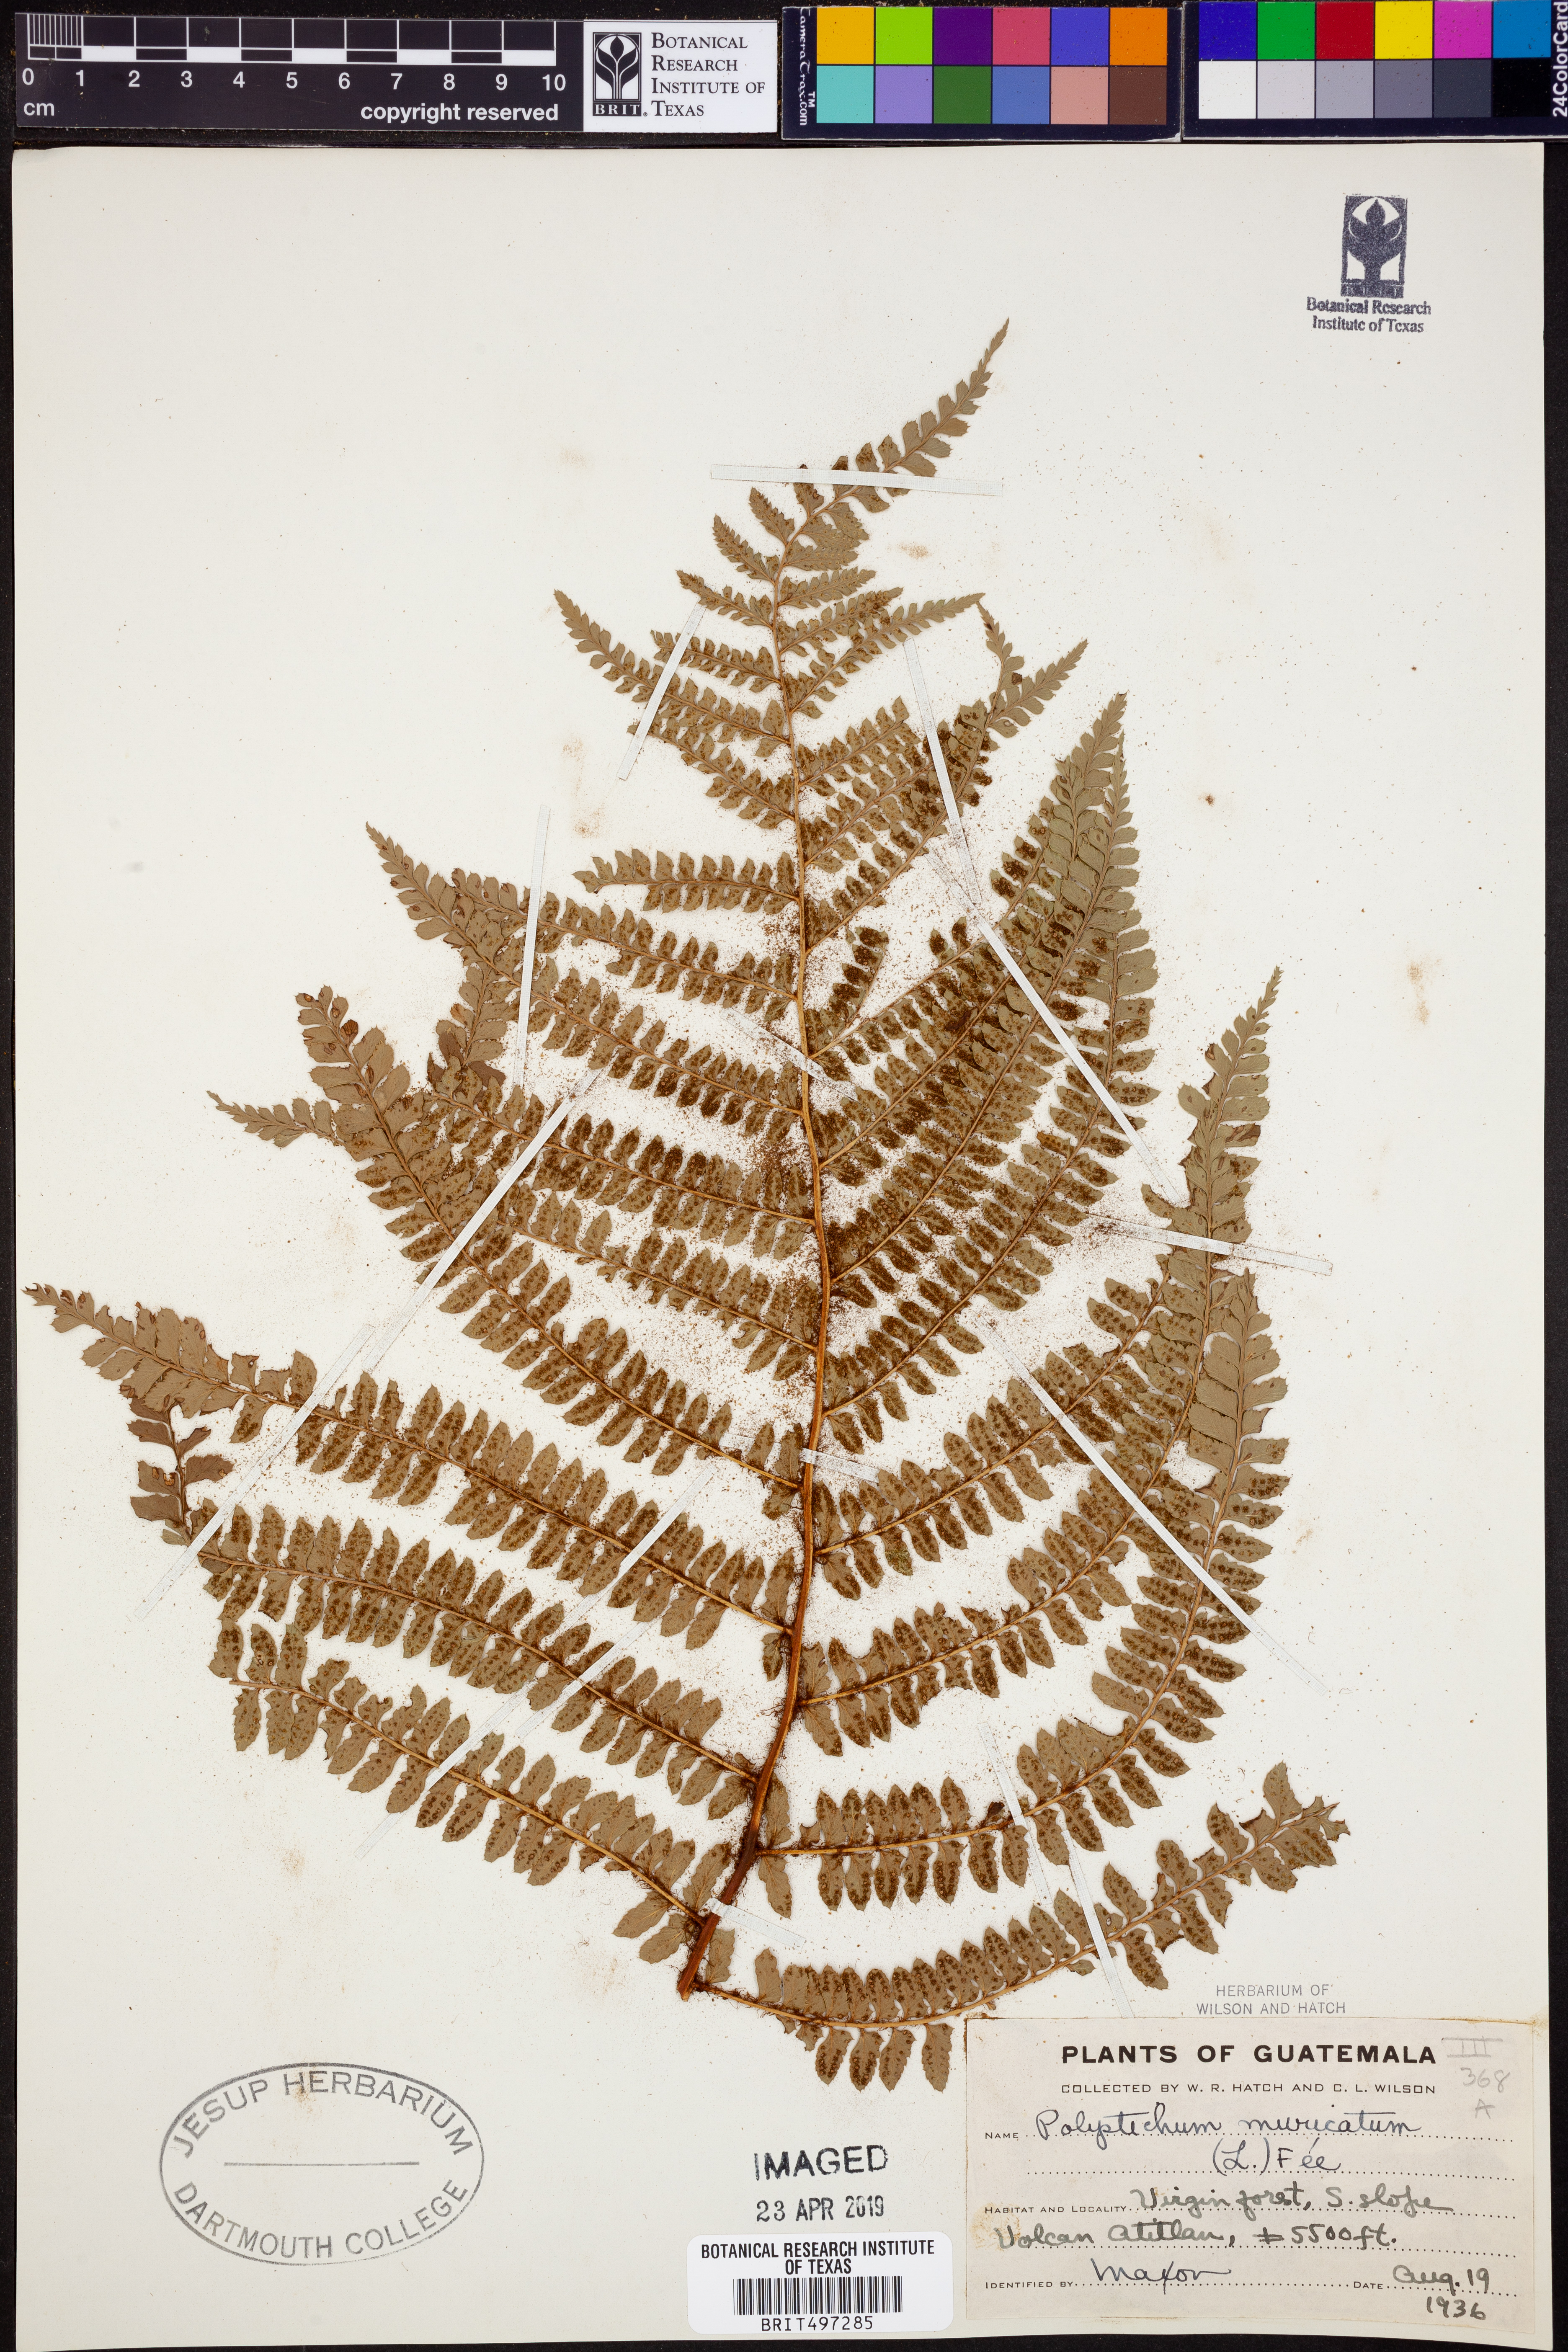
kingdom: Plantae
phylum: Tracheophyta
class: Polypodiopsida
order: Polypodiales
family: Dryopteridaceae
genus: Polystichum
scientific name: Polystichum muricatum
